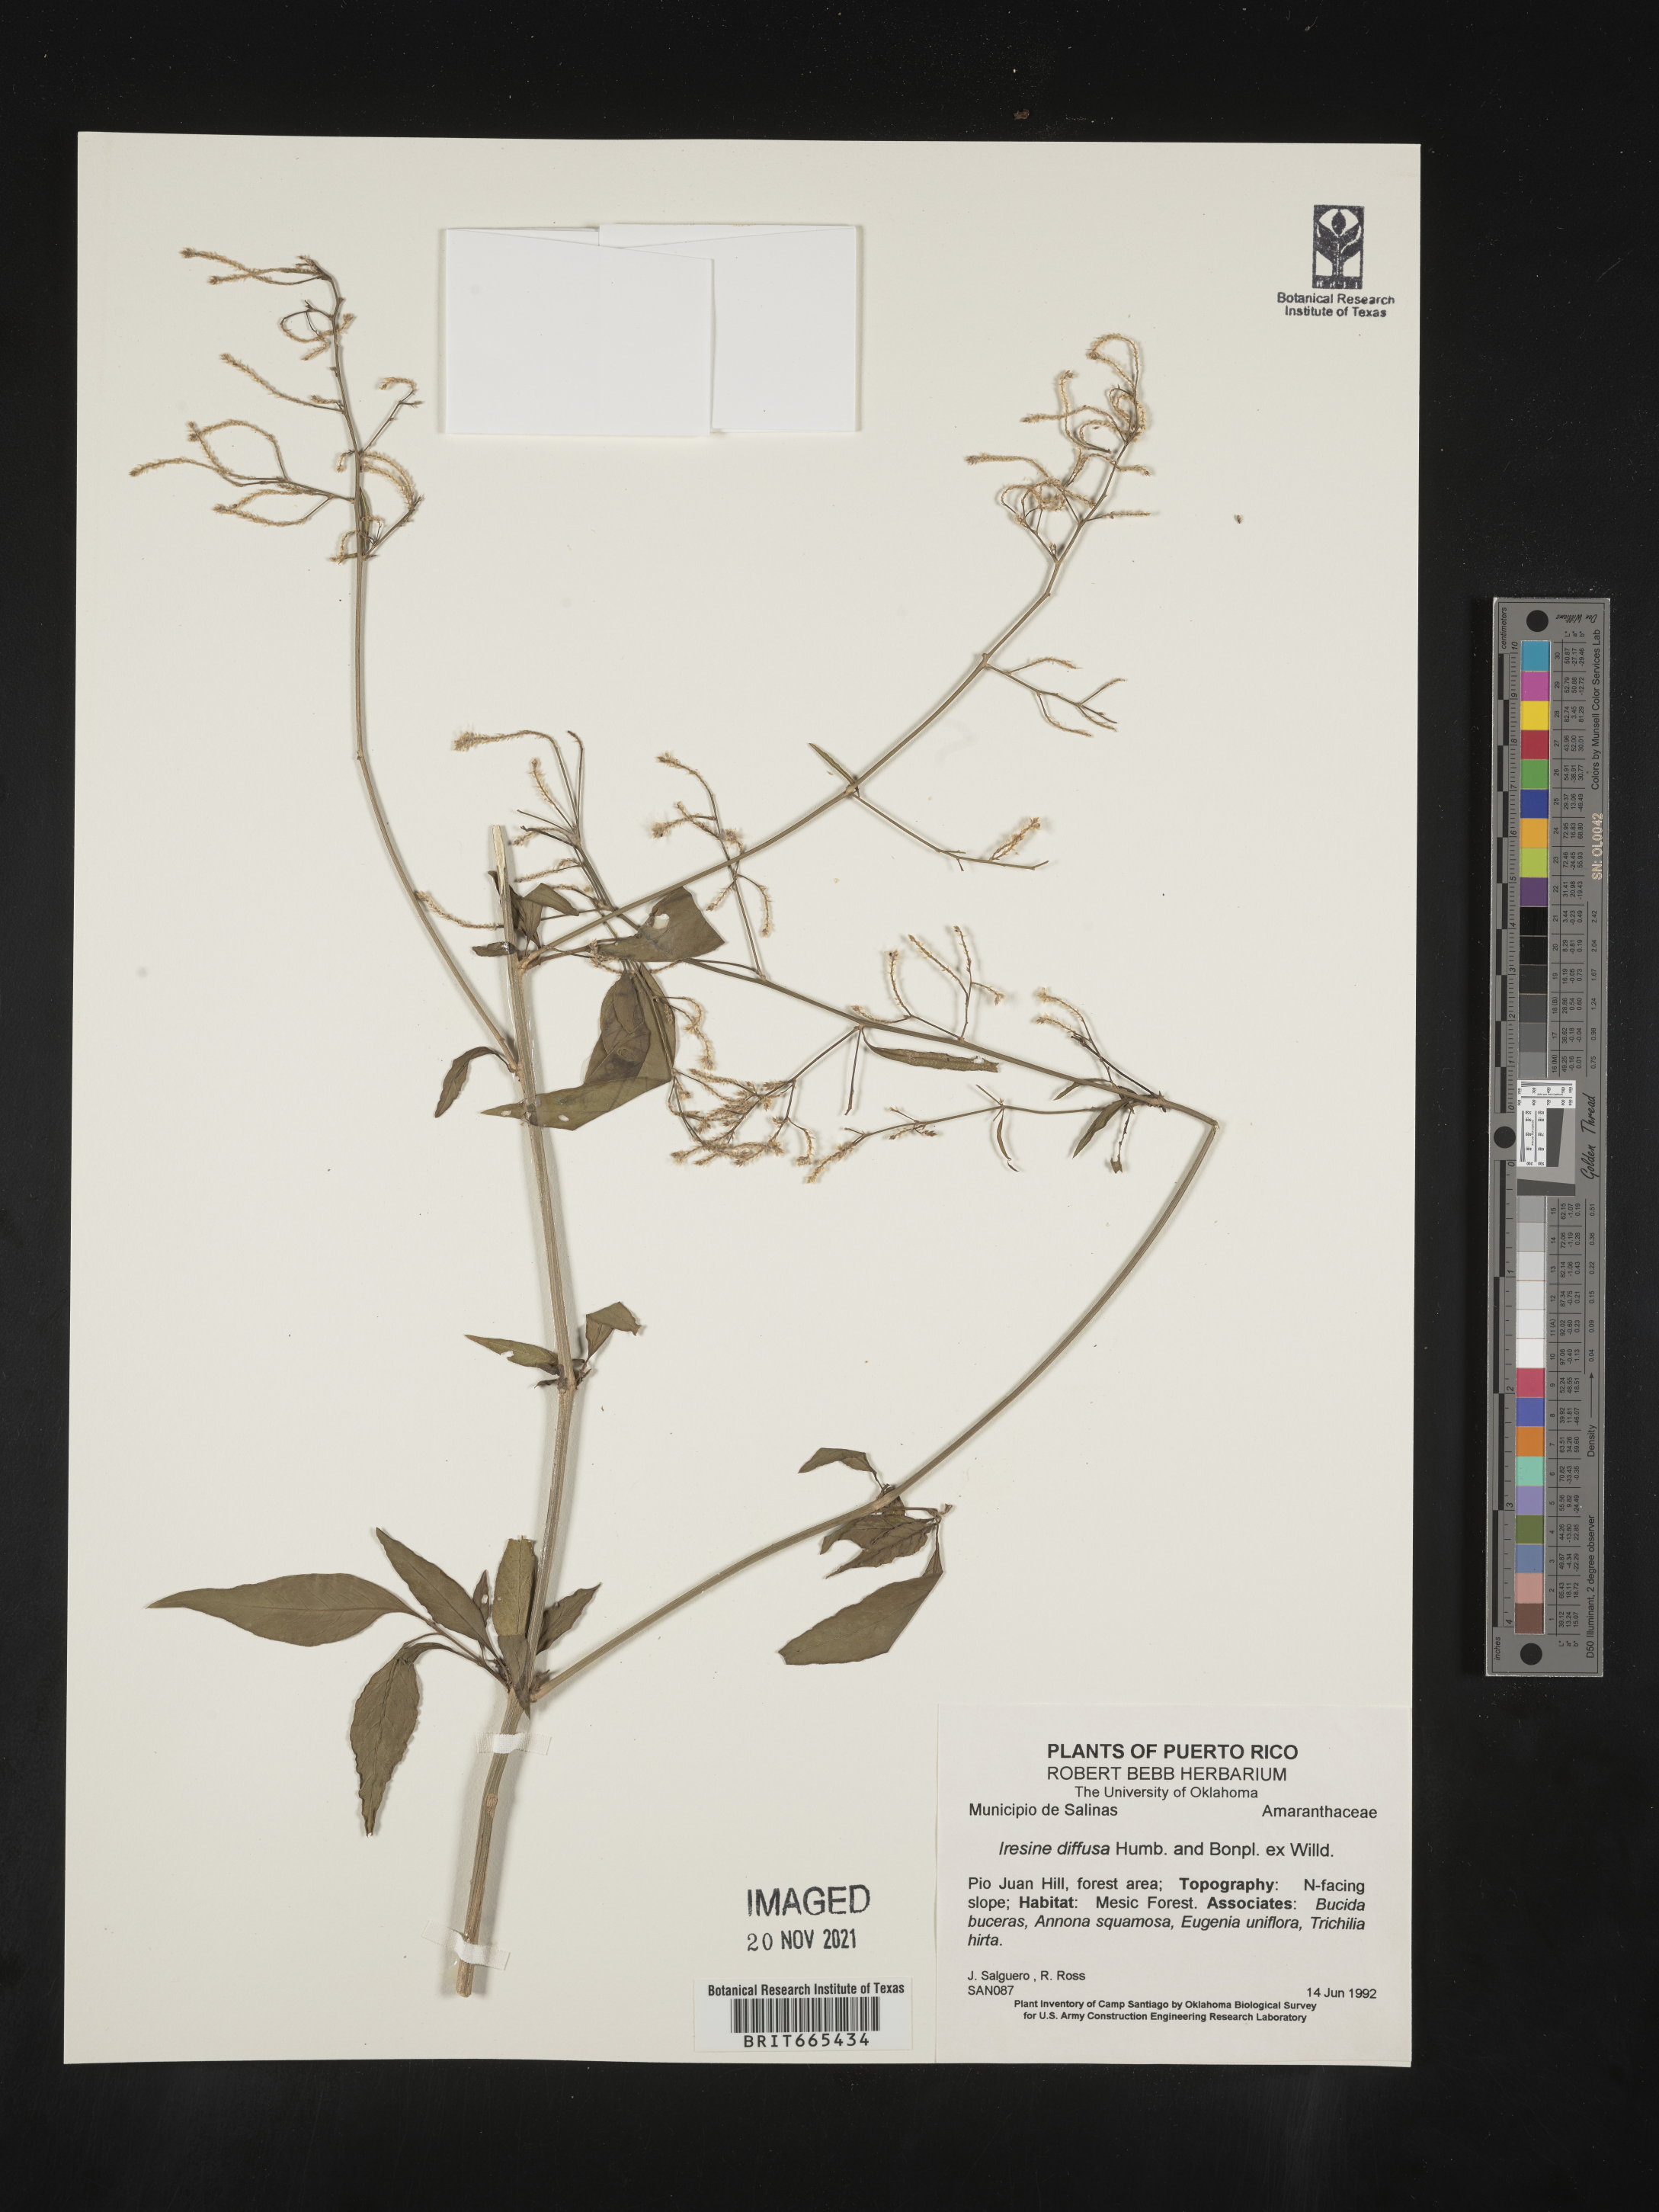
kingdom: Plantae
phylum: Tracheophyta
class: Magnoliopsida
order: Caryophyllales
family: Amaranthaceae
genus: Iresine
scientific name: Iresine
